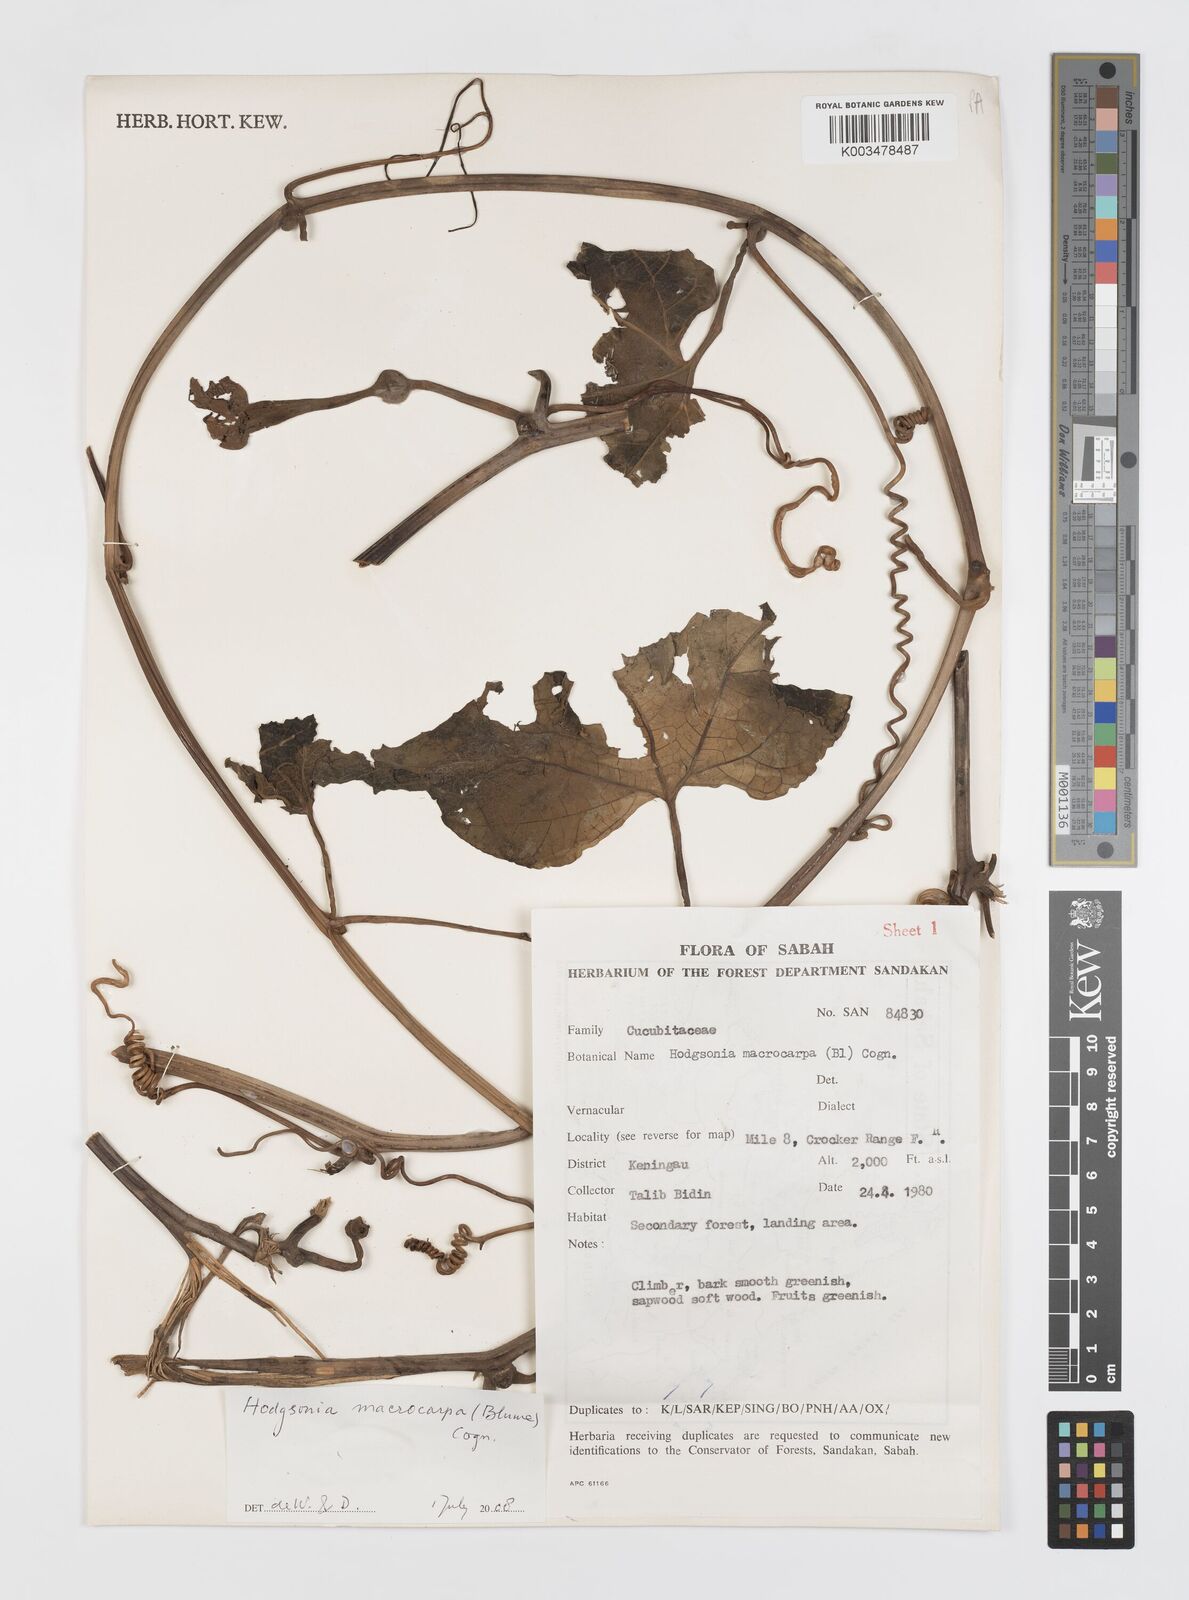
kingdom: Plantae
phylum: Tracheophyta
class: Magnoliopsida
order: Cucurbitales
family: Cucurbitaceae
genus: Hodgsonia
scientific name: Hodgsonia macrocarpa
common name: Chinese lardfruit
